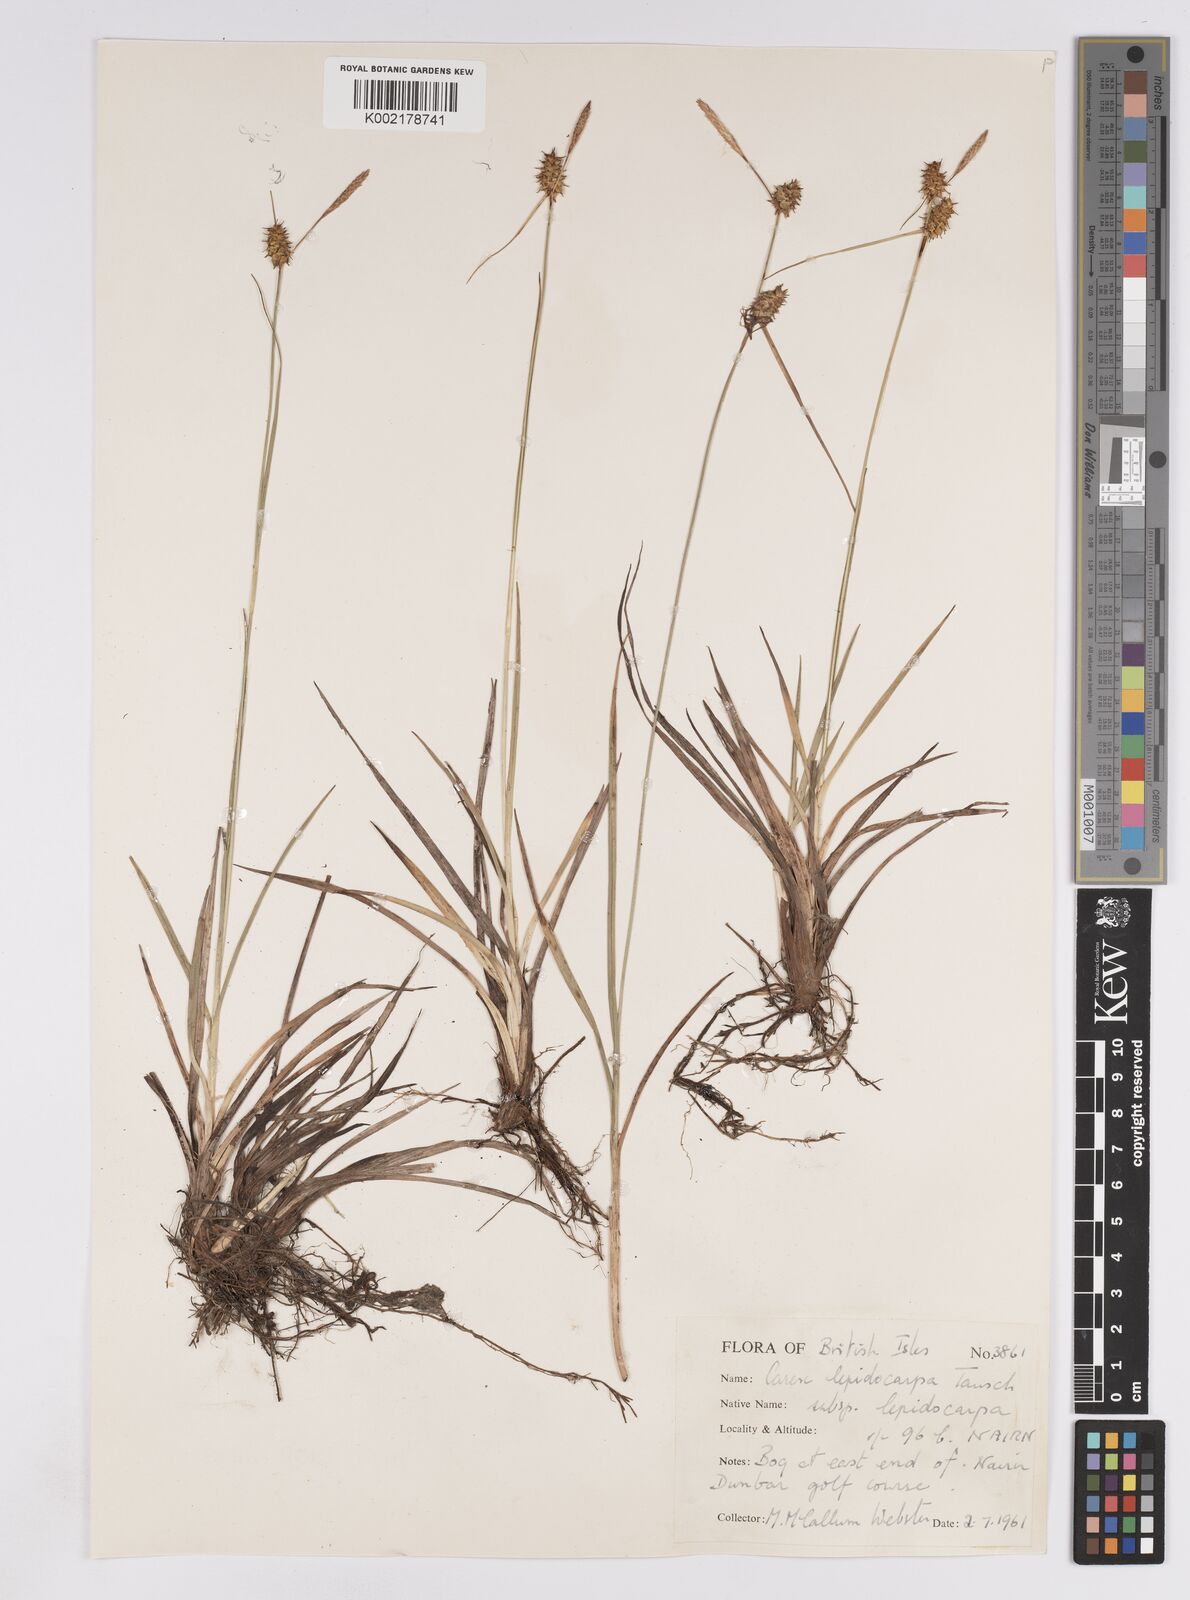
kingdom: Plantae
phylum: Tracheophyta
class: Liliopsida
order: Poales
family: Cyperaceae
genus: Carex
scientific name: Carex lepidocarpa
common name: Long-stalked yellow-sedge
